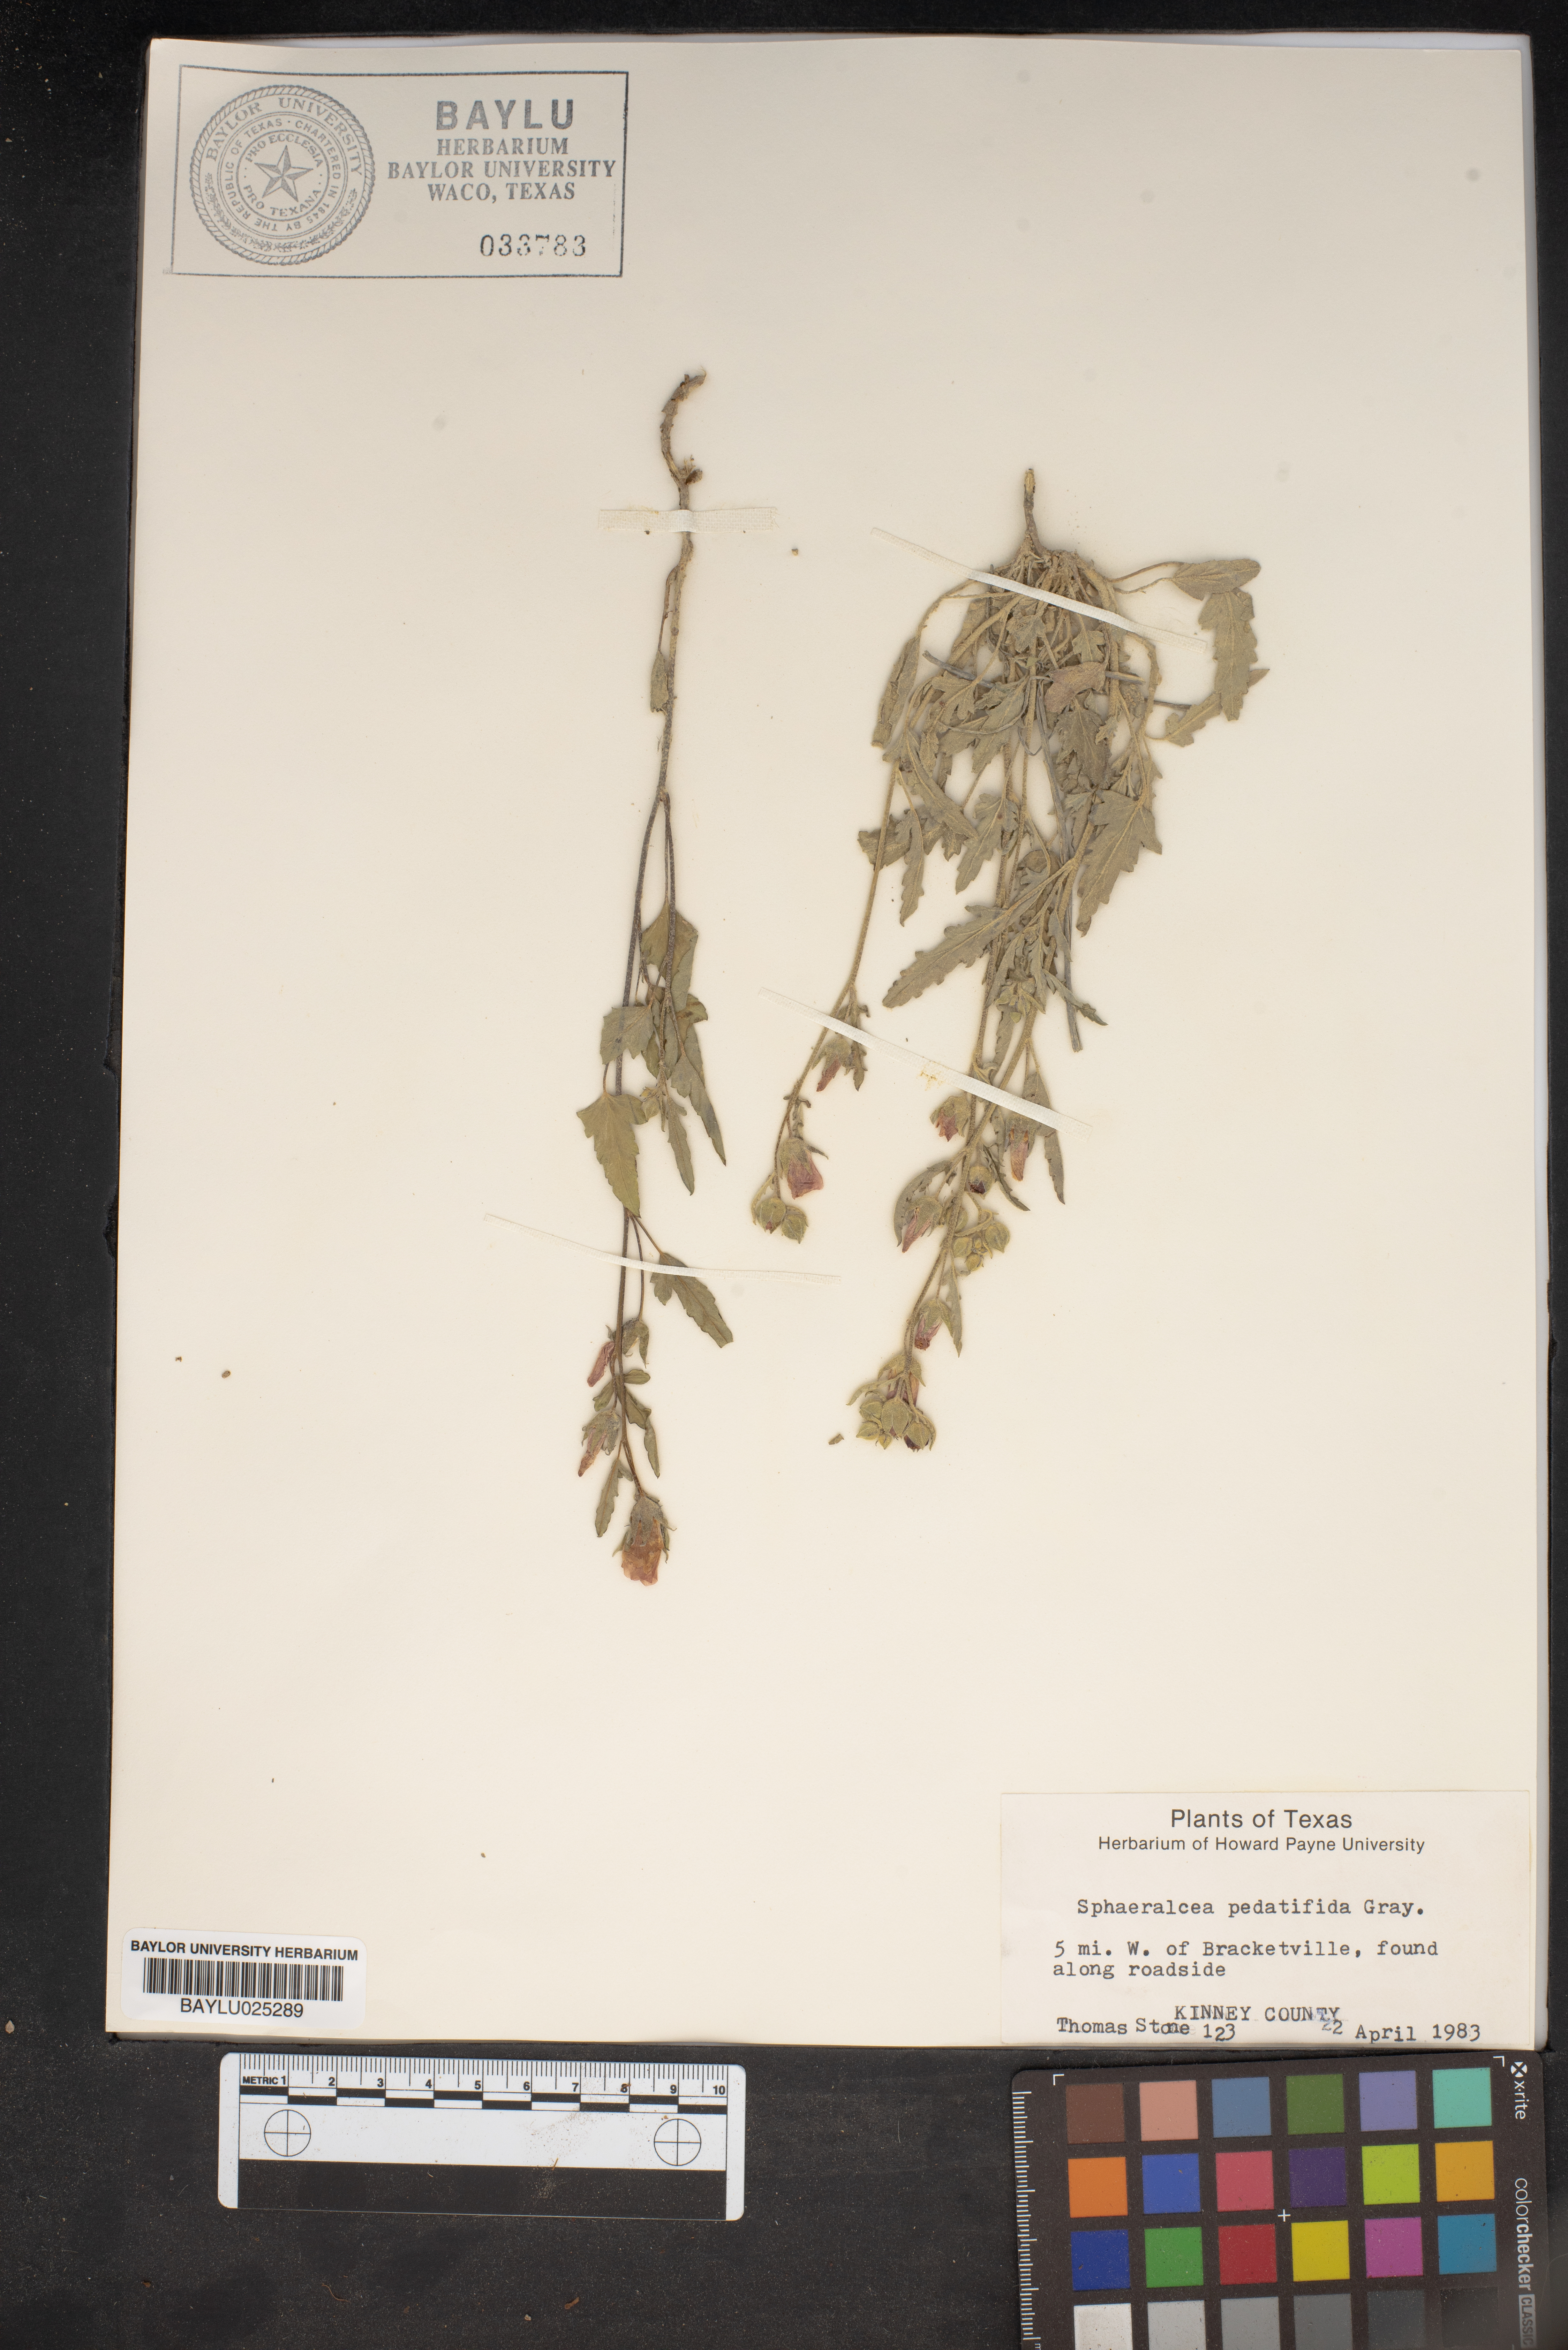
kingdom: Plantae
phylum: Tracheophyta
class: Magnoliopsida
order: Malvales
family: Malvaceae
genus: Sphaeralcea
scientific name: Sphaeralcea pedatifida
